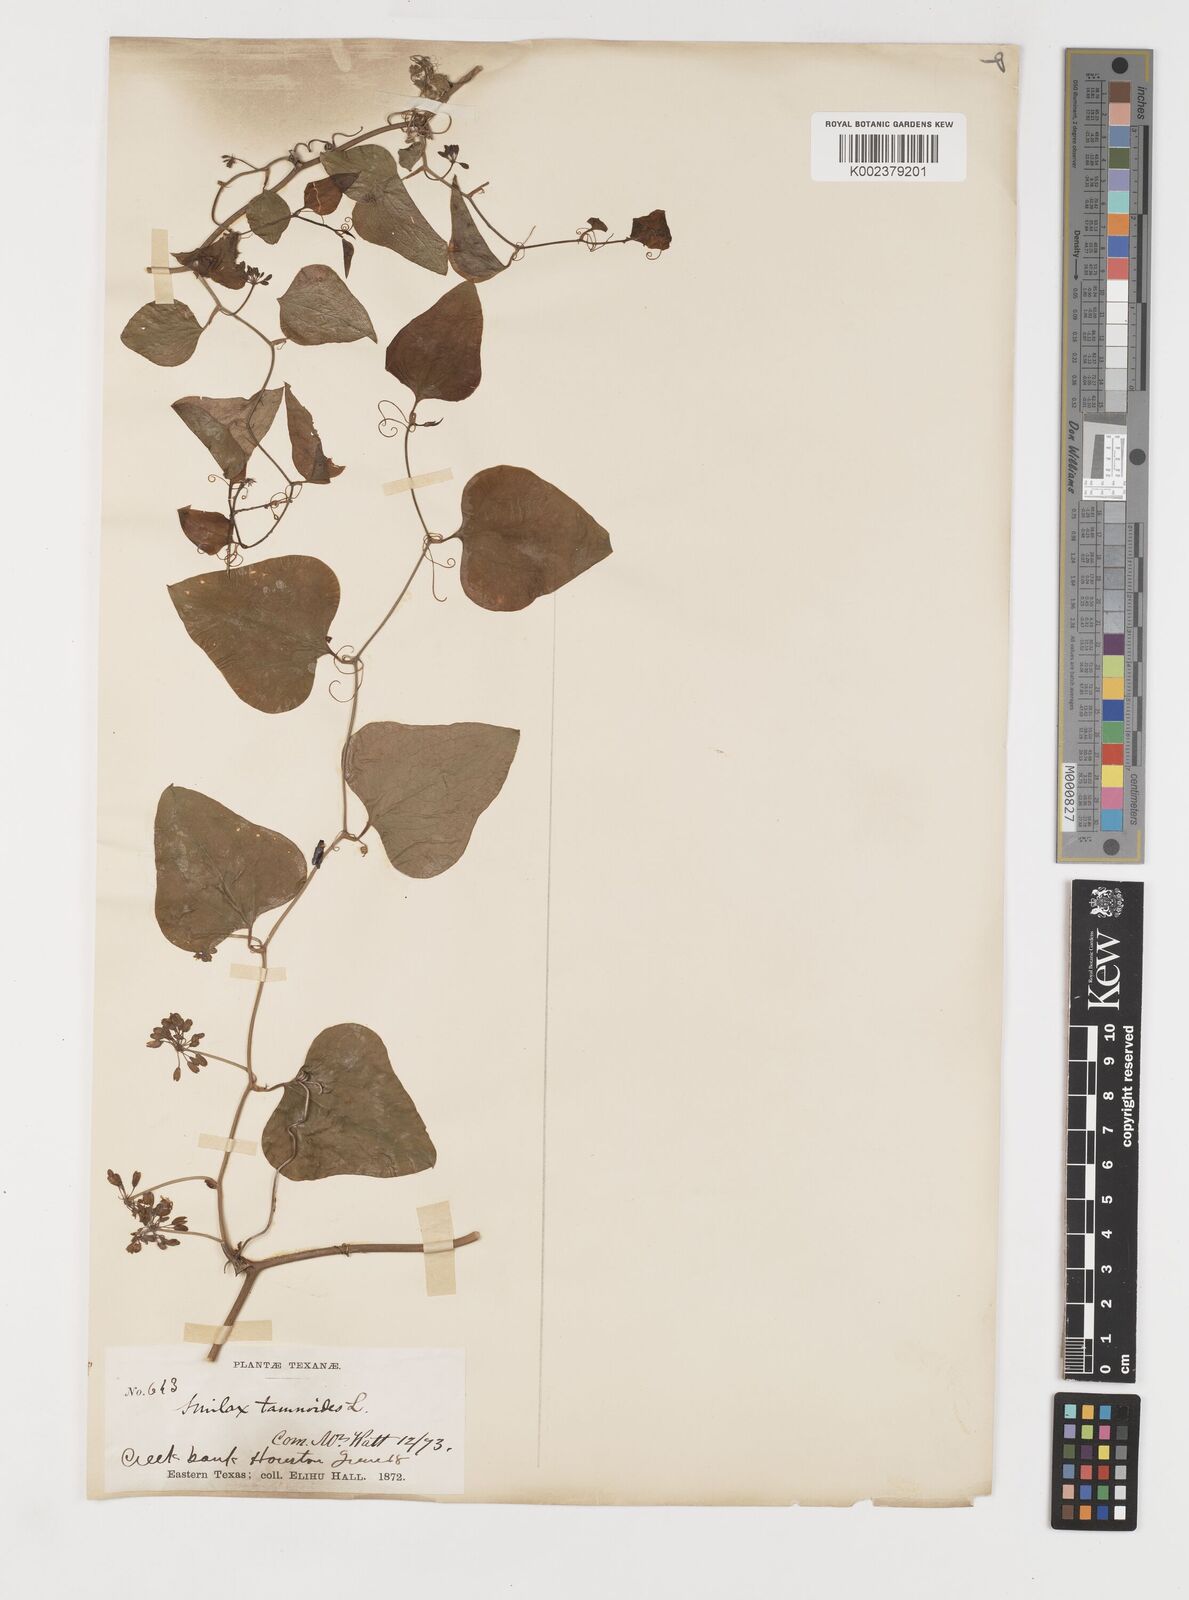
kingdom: Plantae
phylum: Tracheophyta
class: Liliopsida
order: Liliales
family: Smilacaceae
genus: Smilax
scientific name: Smilax pseudochina
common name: False chinaroot
